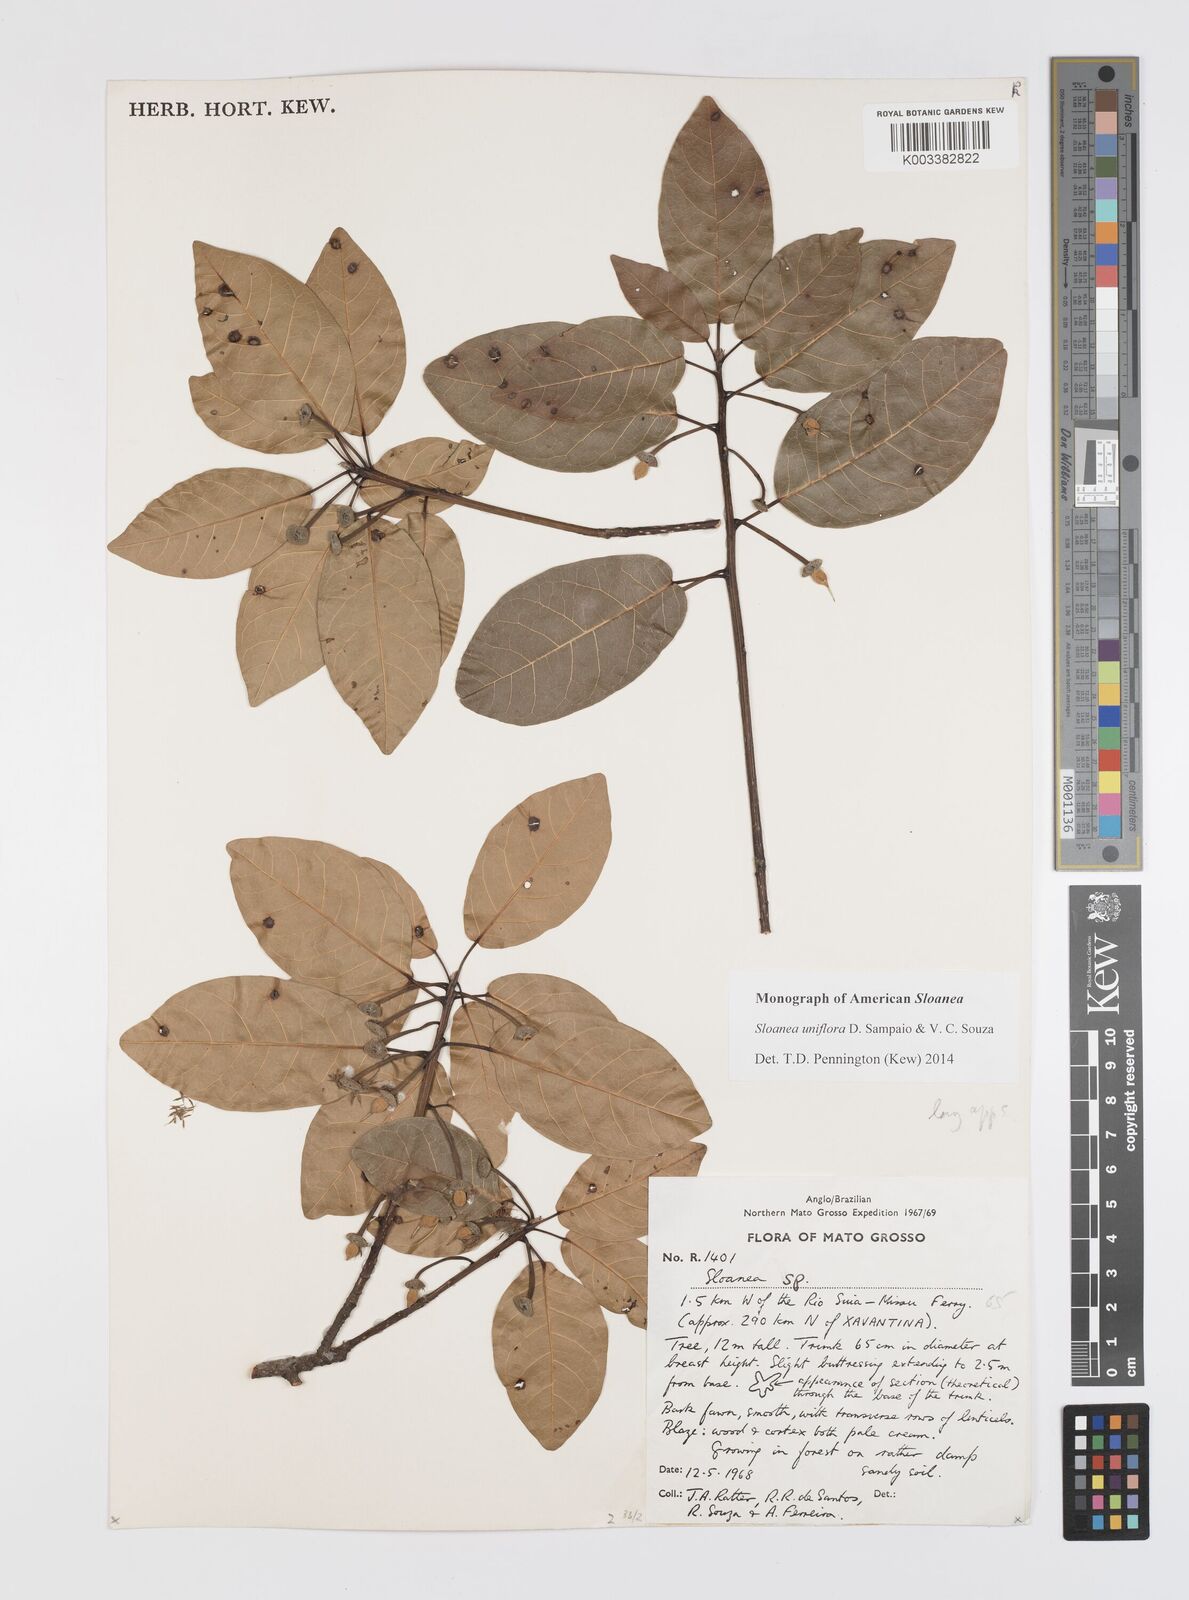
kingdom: Plantae
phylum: Tracheophyta
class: Magnoliopsida
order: Oxalidales
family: Elaeocarpaceae
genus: Sloanea
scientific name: Sloanea uniflora
